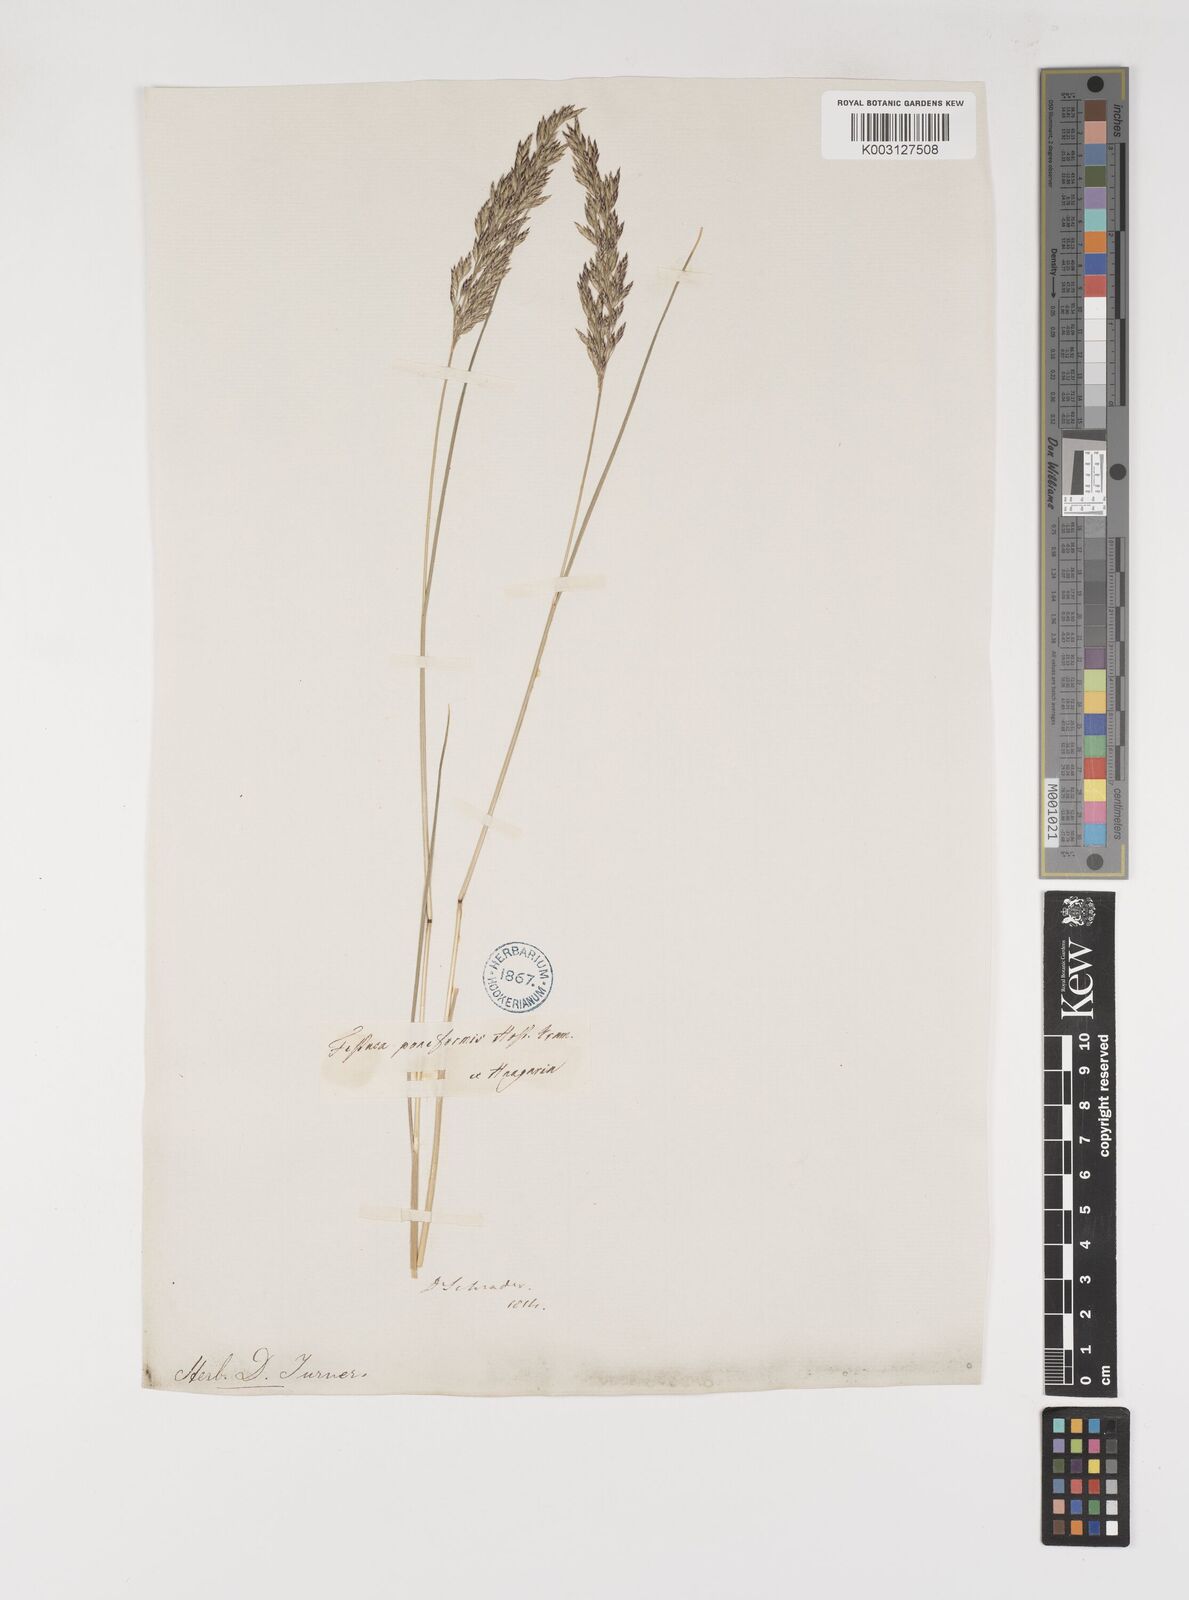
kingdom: Plantae
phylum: Tracheophyta
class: Liliopsida
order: Poales
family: Poaceae
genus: Bellardiochloa
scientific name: Bellardiochloa variegata
